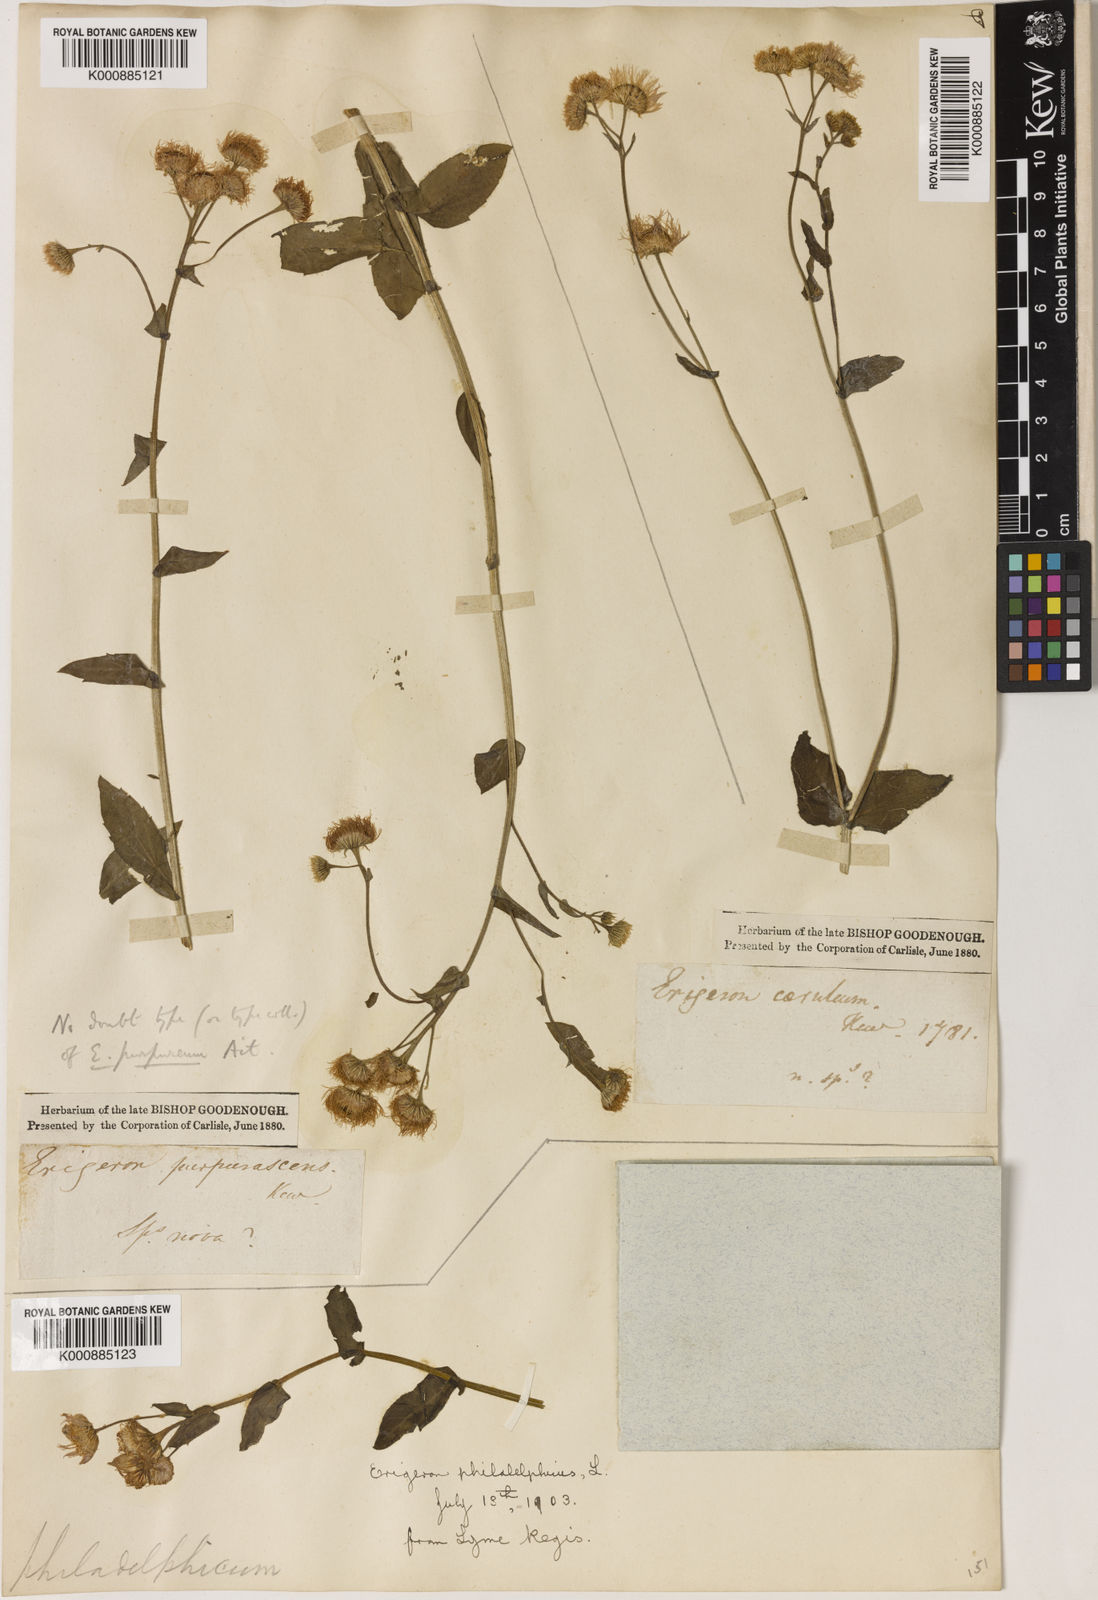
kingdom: Plantae
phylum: Tracheophyta
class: Magnoliopsida
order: Asterales
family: Asteraceae
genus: Erigeron
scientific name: Erigeron pulchellus
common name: Hairy fleabane
